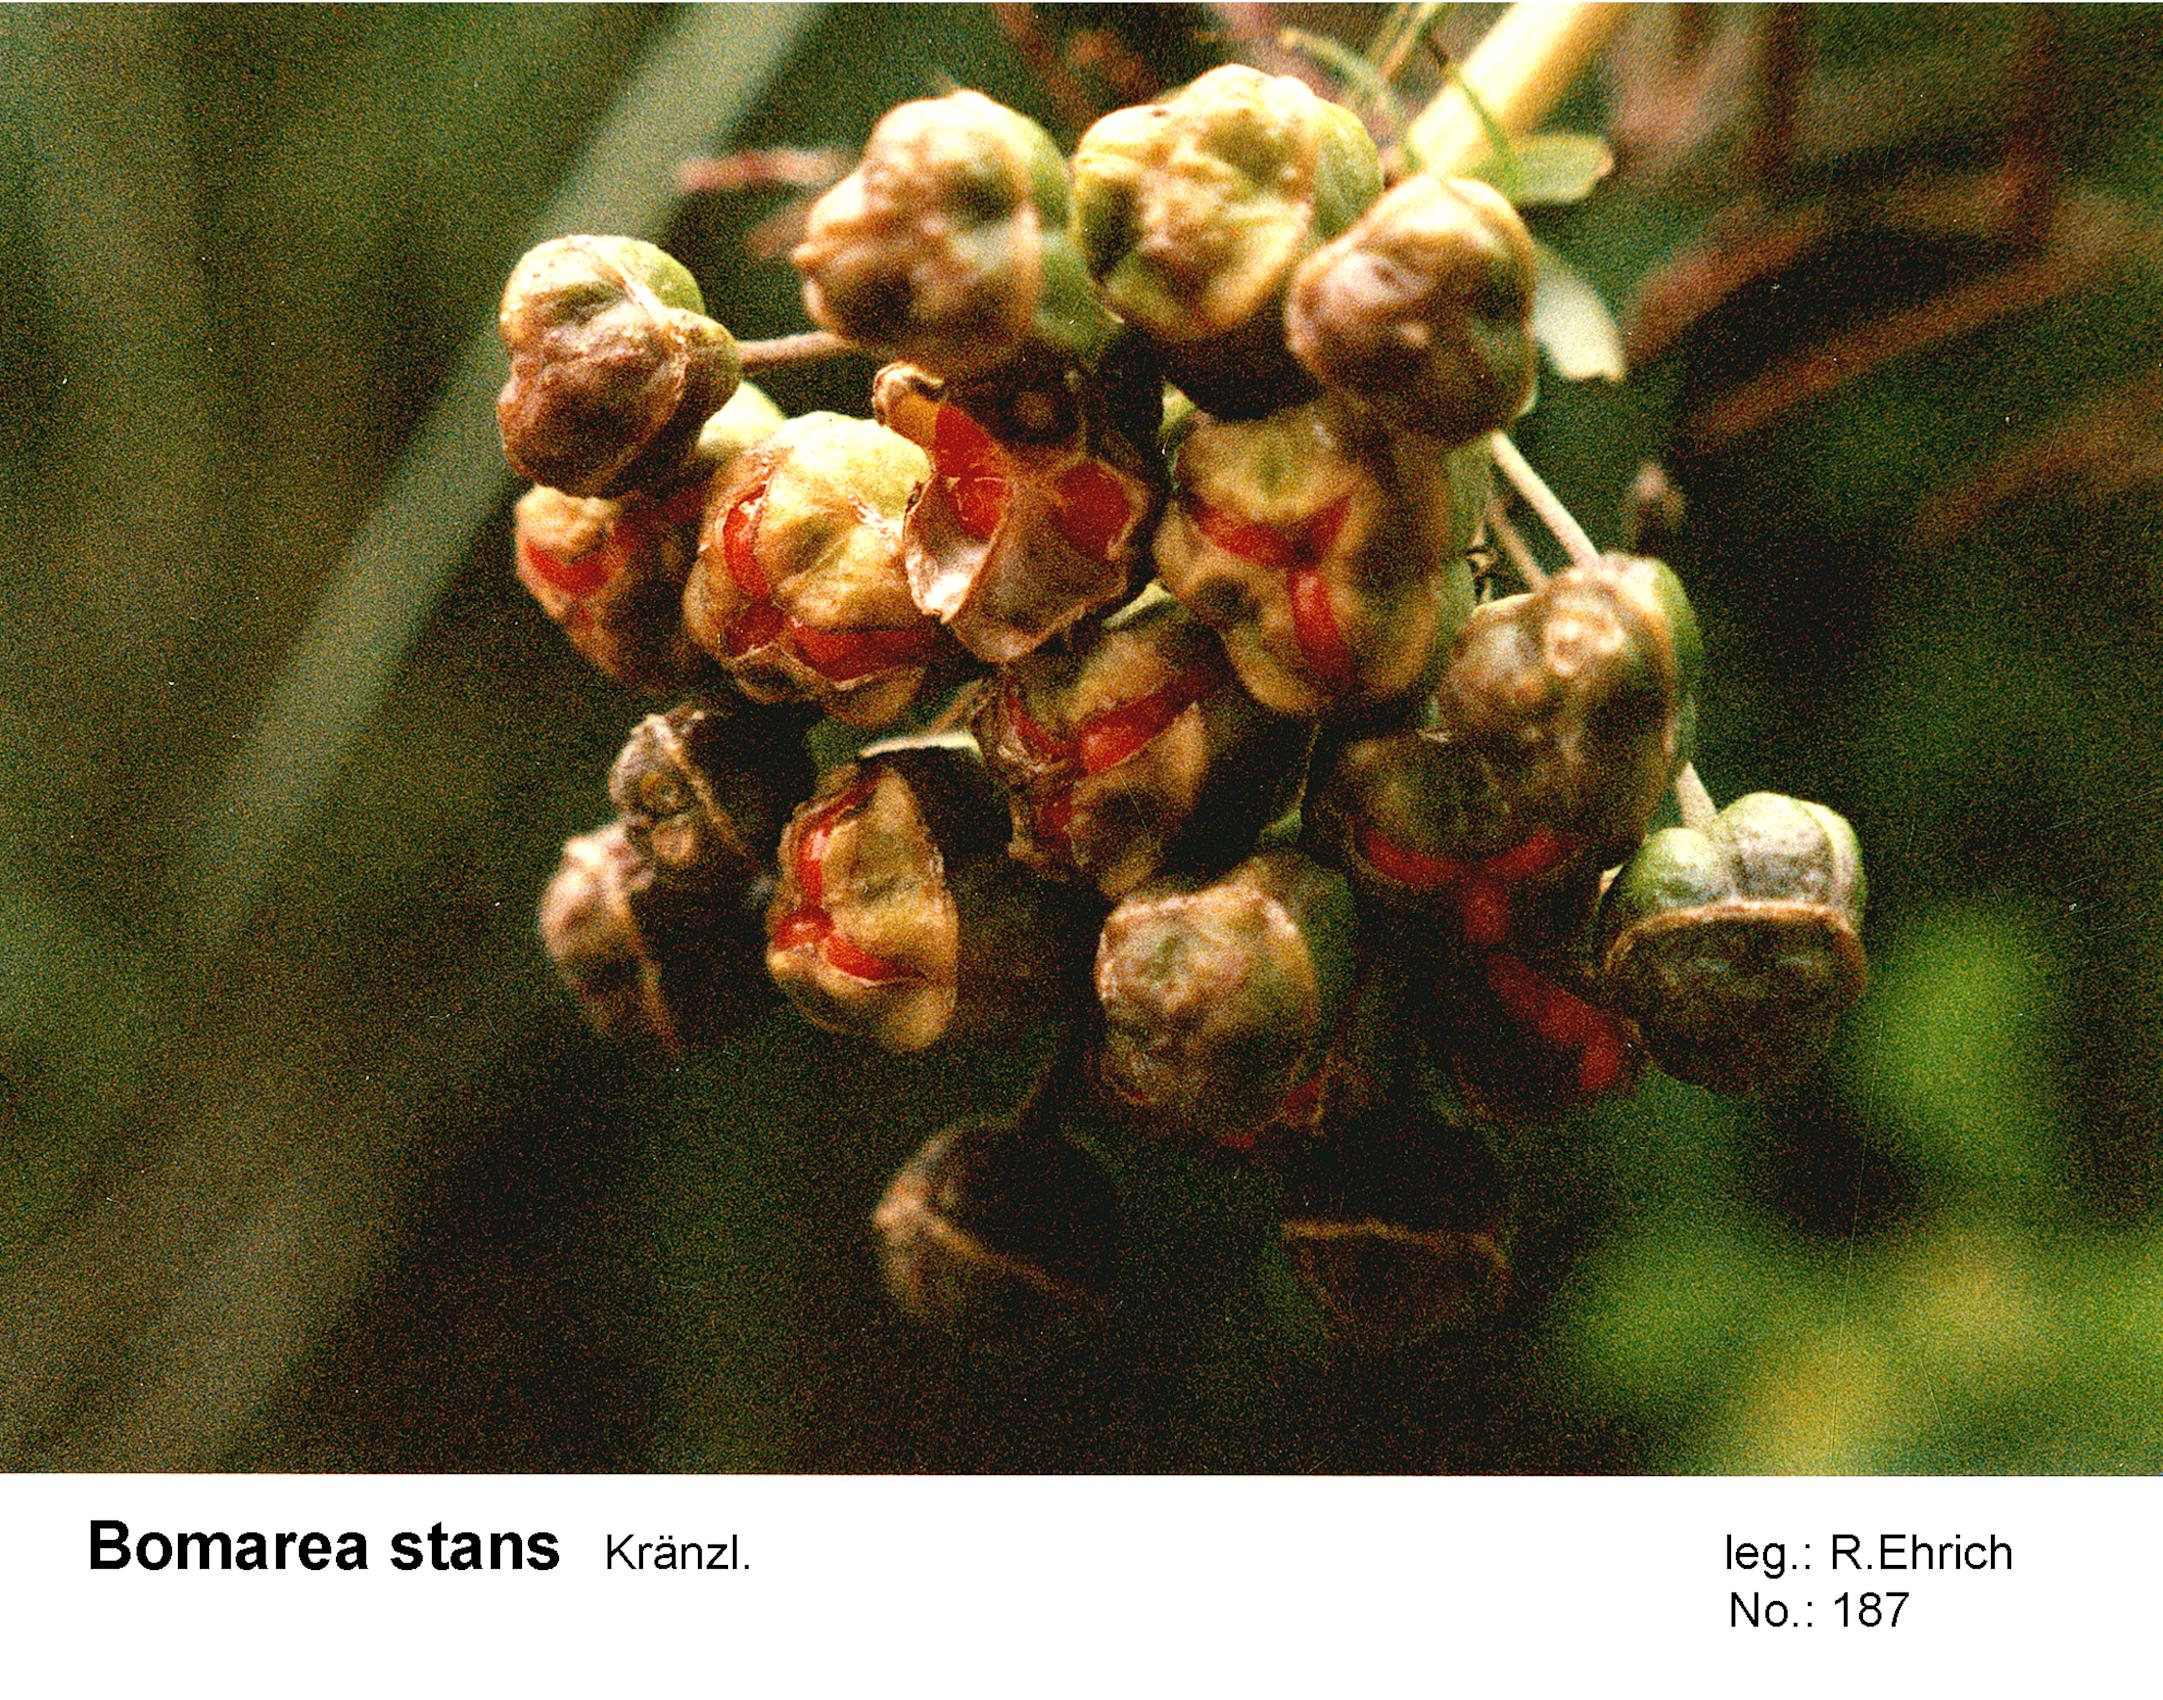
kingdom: Plantae
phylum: Tracheophyta
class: Liliopsida
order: Liliales
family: Alstroemeriaceae
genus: Bomarea
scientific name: Bomarea stans
